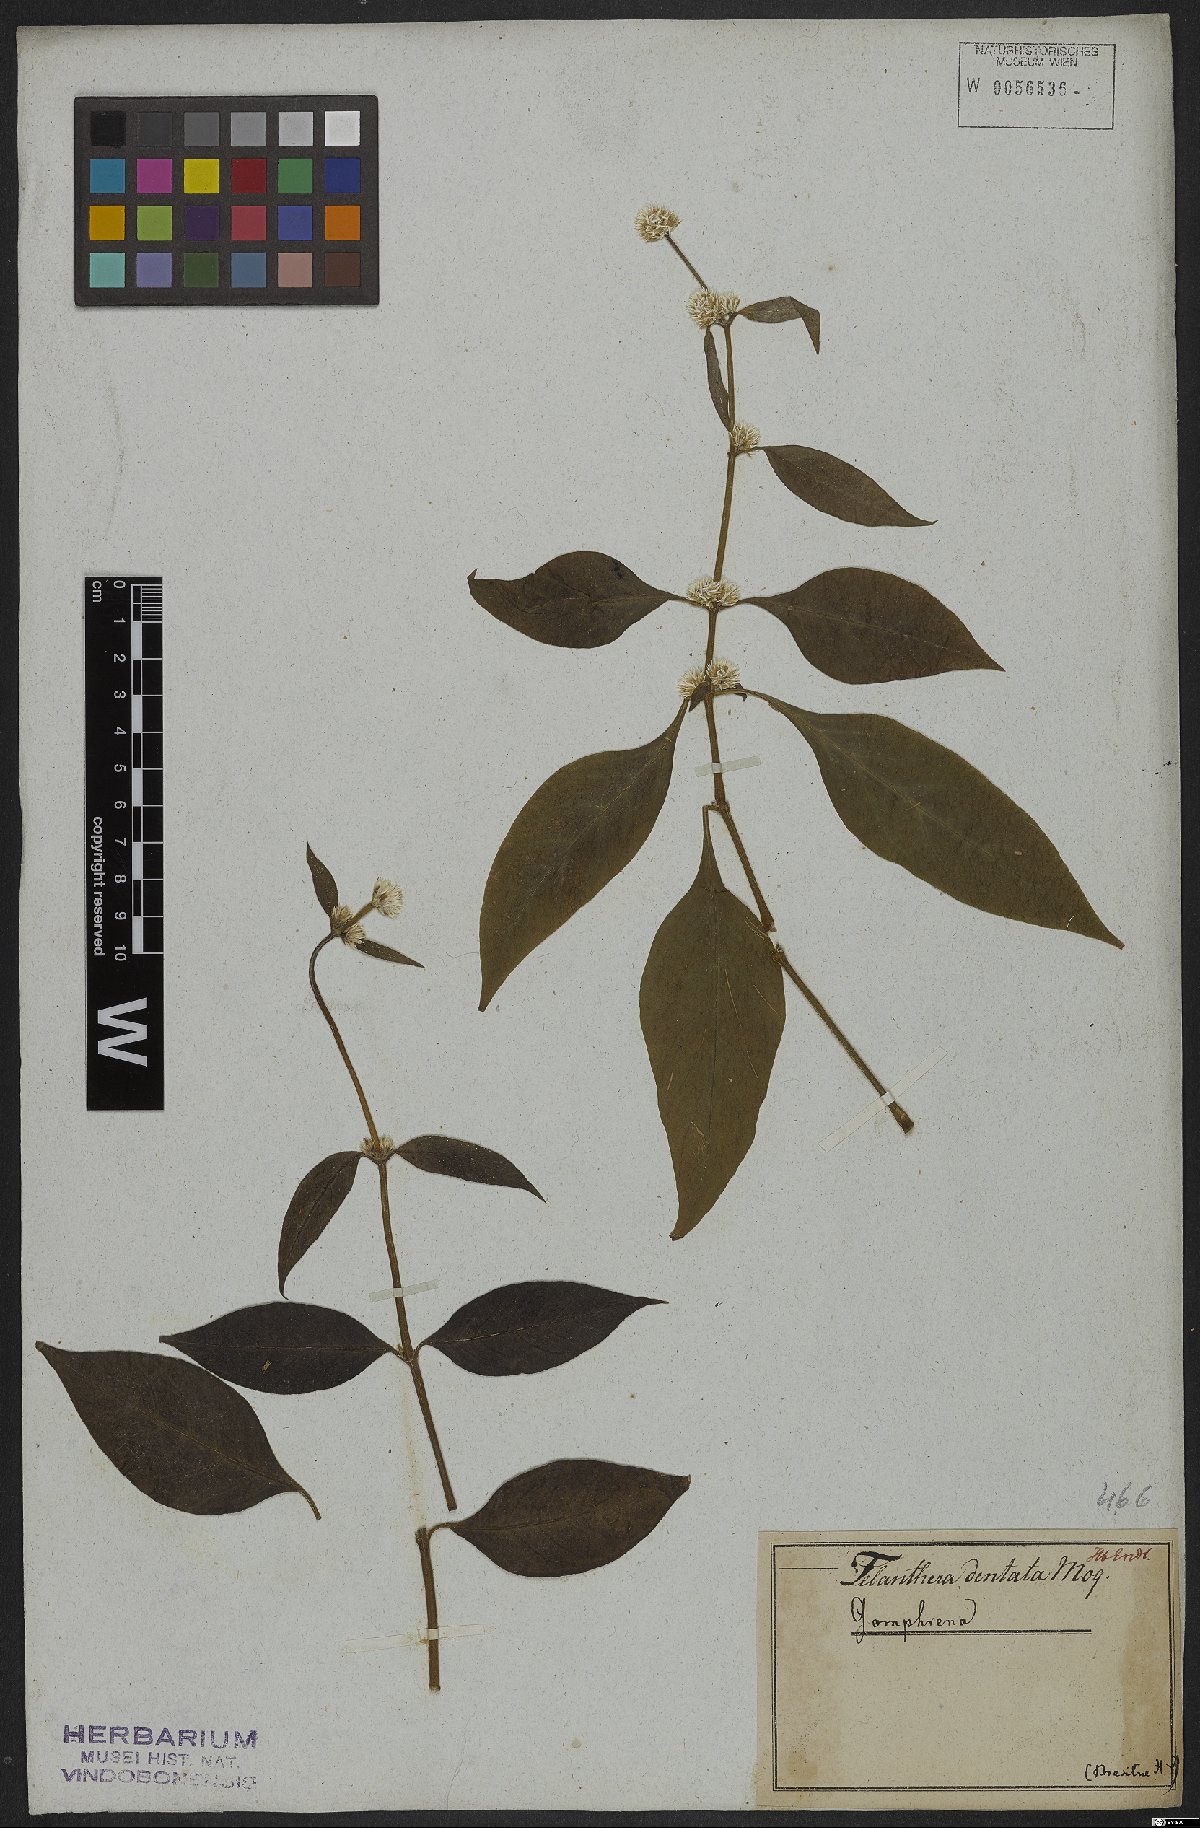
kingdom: Plantae
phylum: Tracheophyta
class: Magnoliopsida
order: Caryophyllales
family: Amaranthaceae
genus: Alternanthera
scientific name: Alternanthera ramosissima
